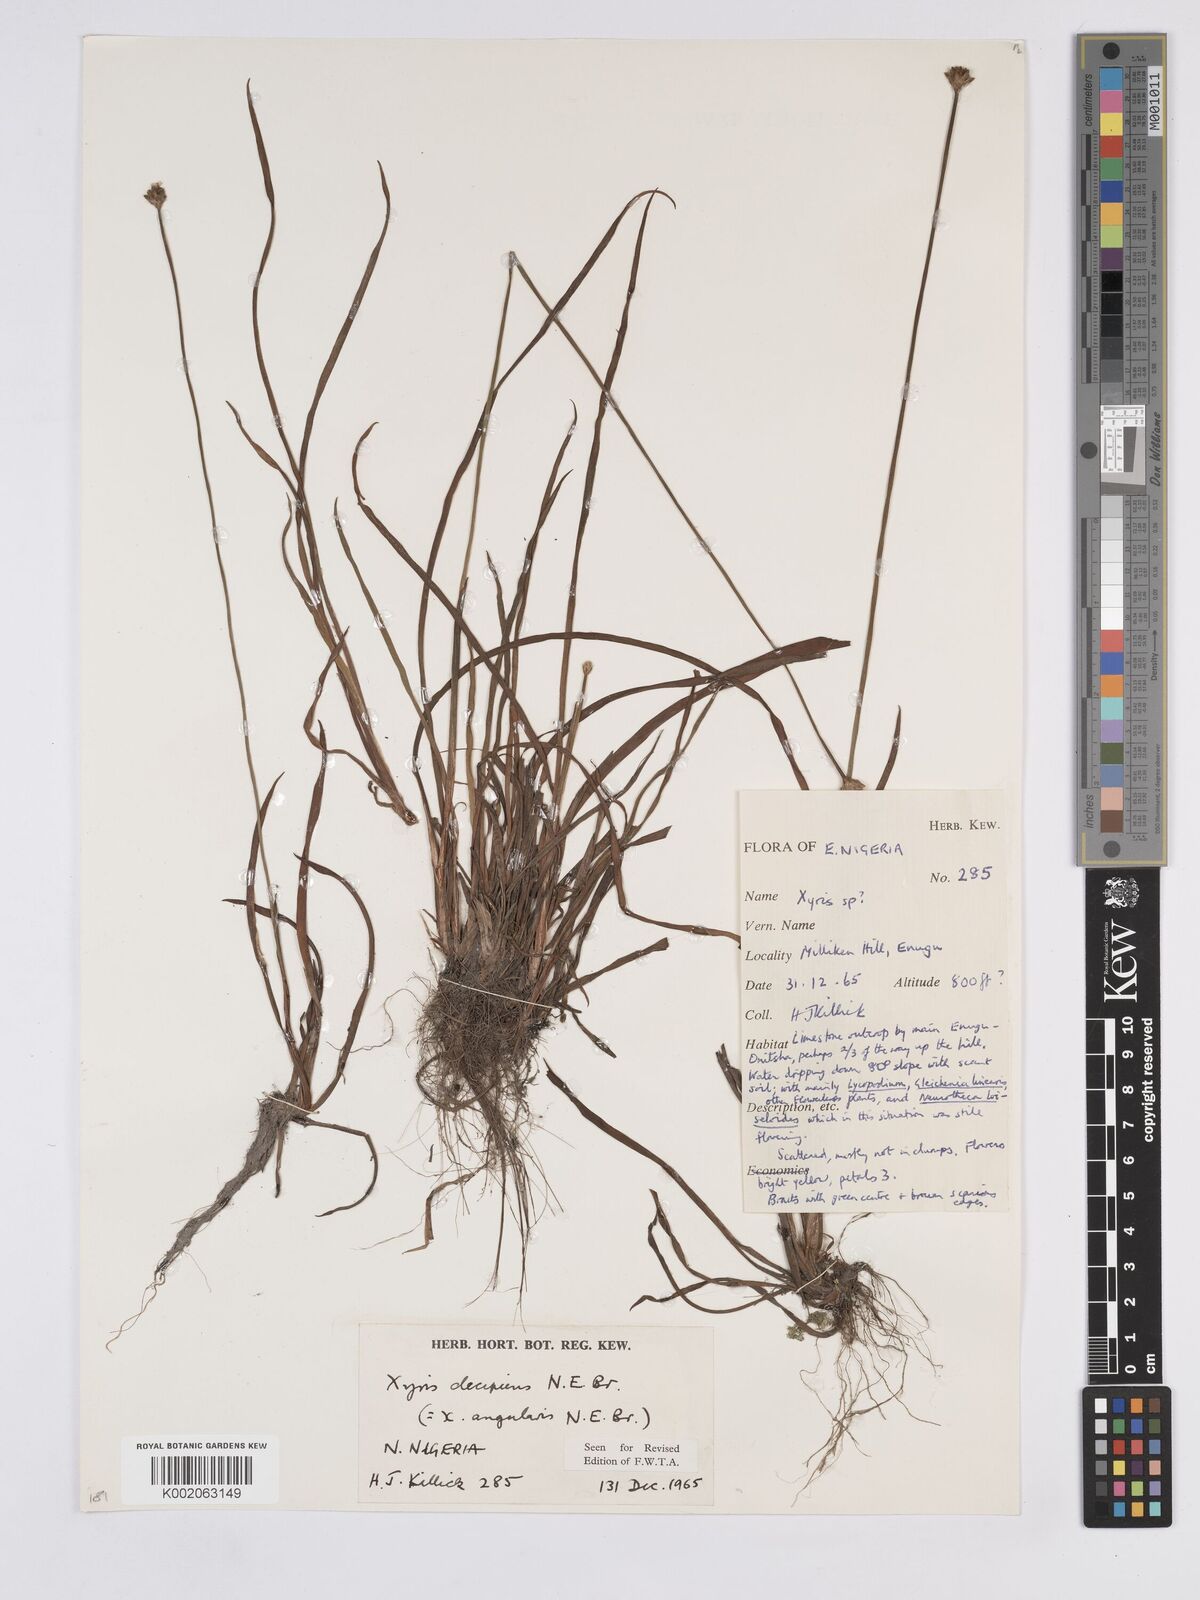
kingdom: Plantae
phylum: Tracheophyta
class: Liliopsida
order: Poales
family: Xyridaceae
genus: Xyris
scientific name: Xyris angularis
